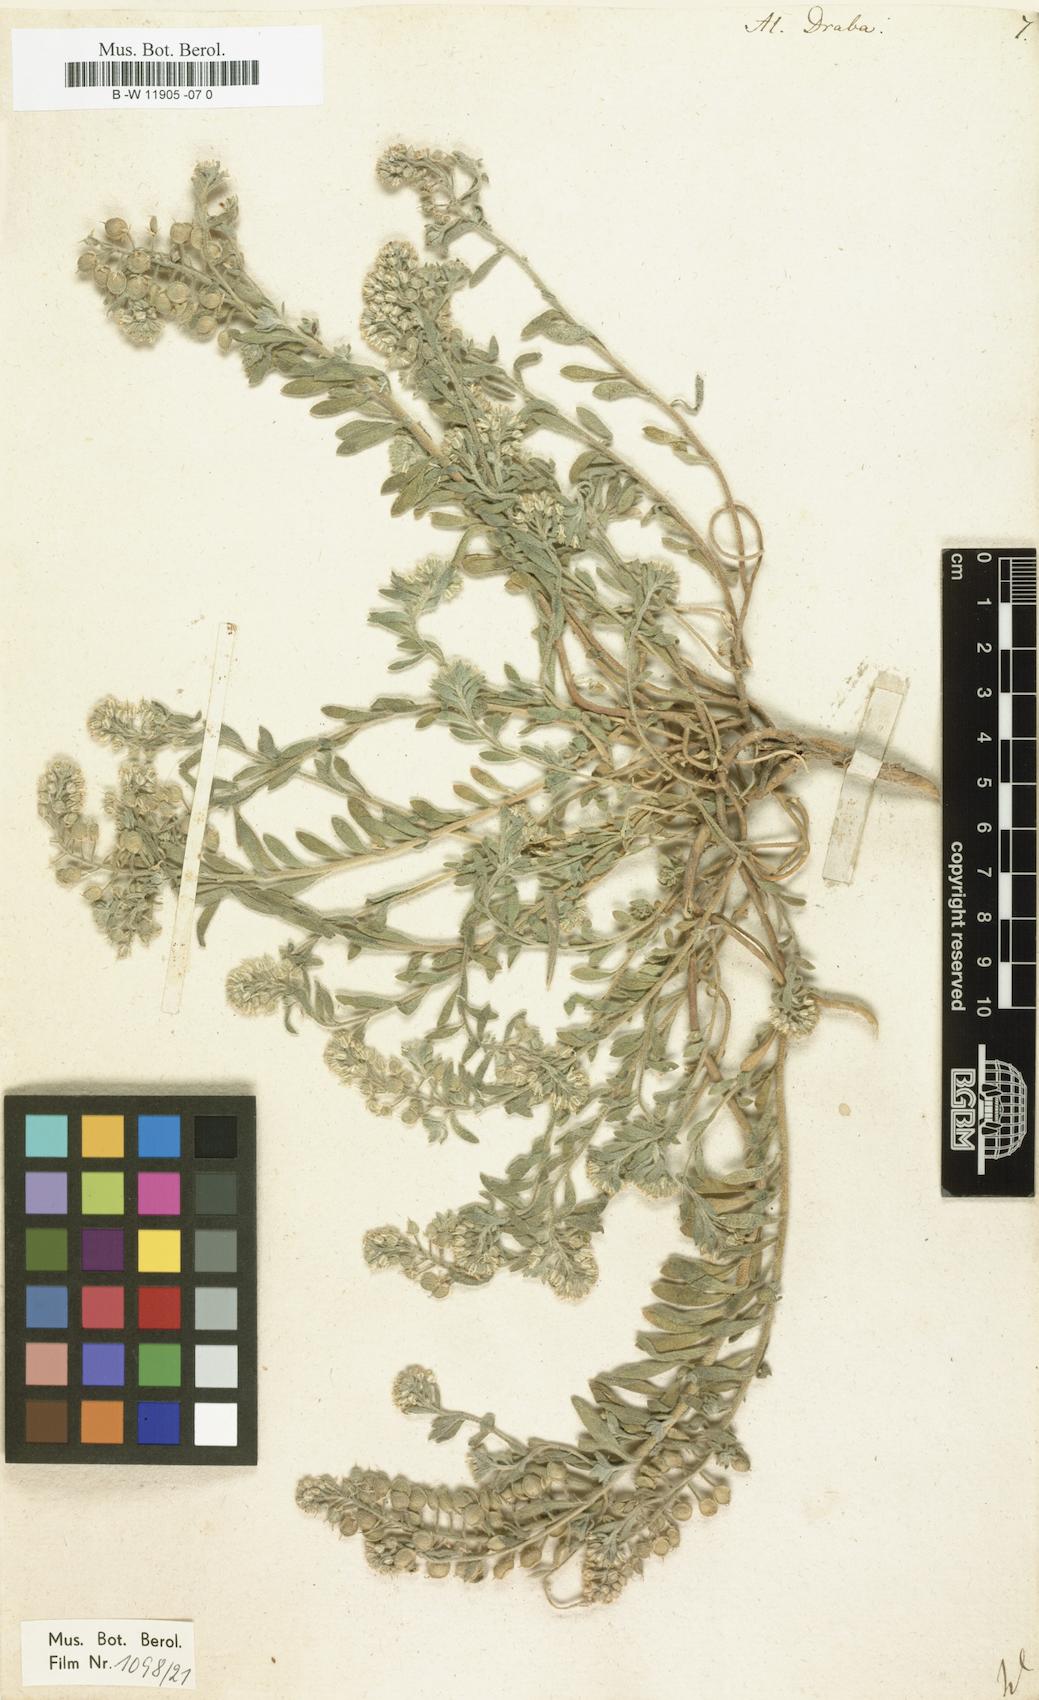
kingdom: Plantae
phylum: Tracheophyta
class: Magnoliopsida
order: Brassicales
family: Brassicaceae
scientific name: Brassicaceae
